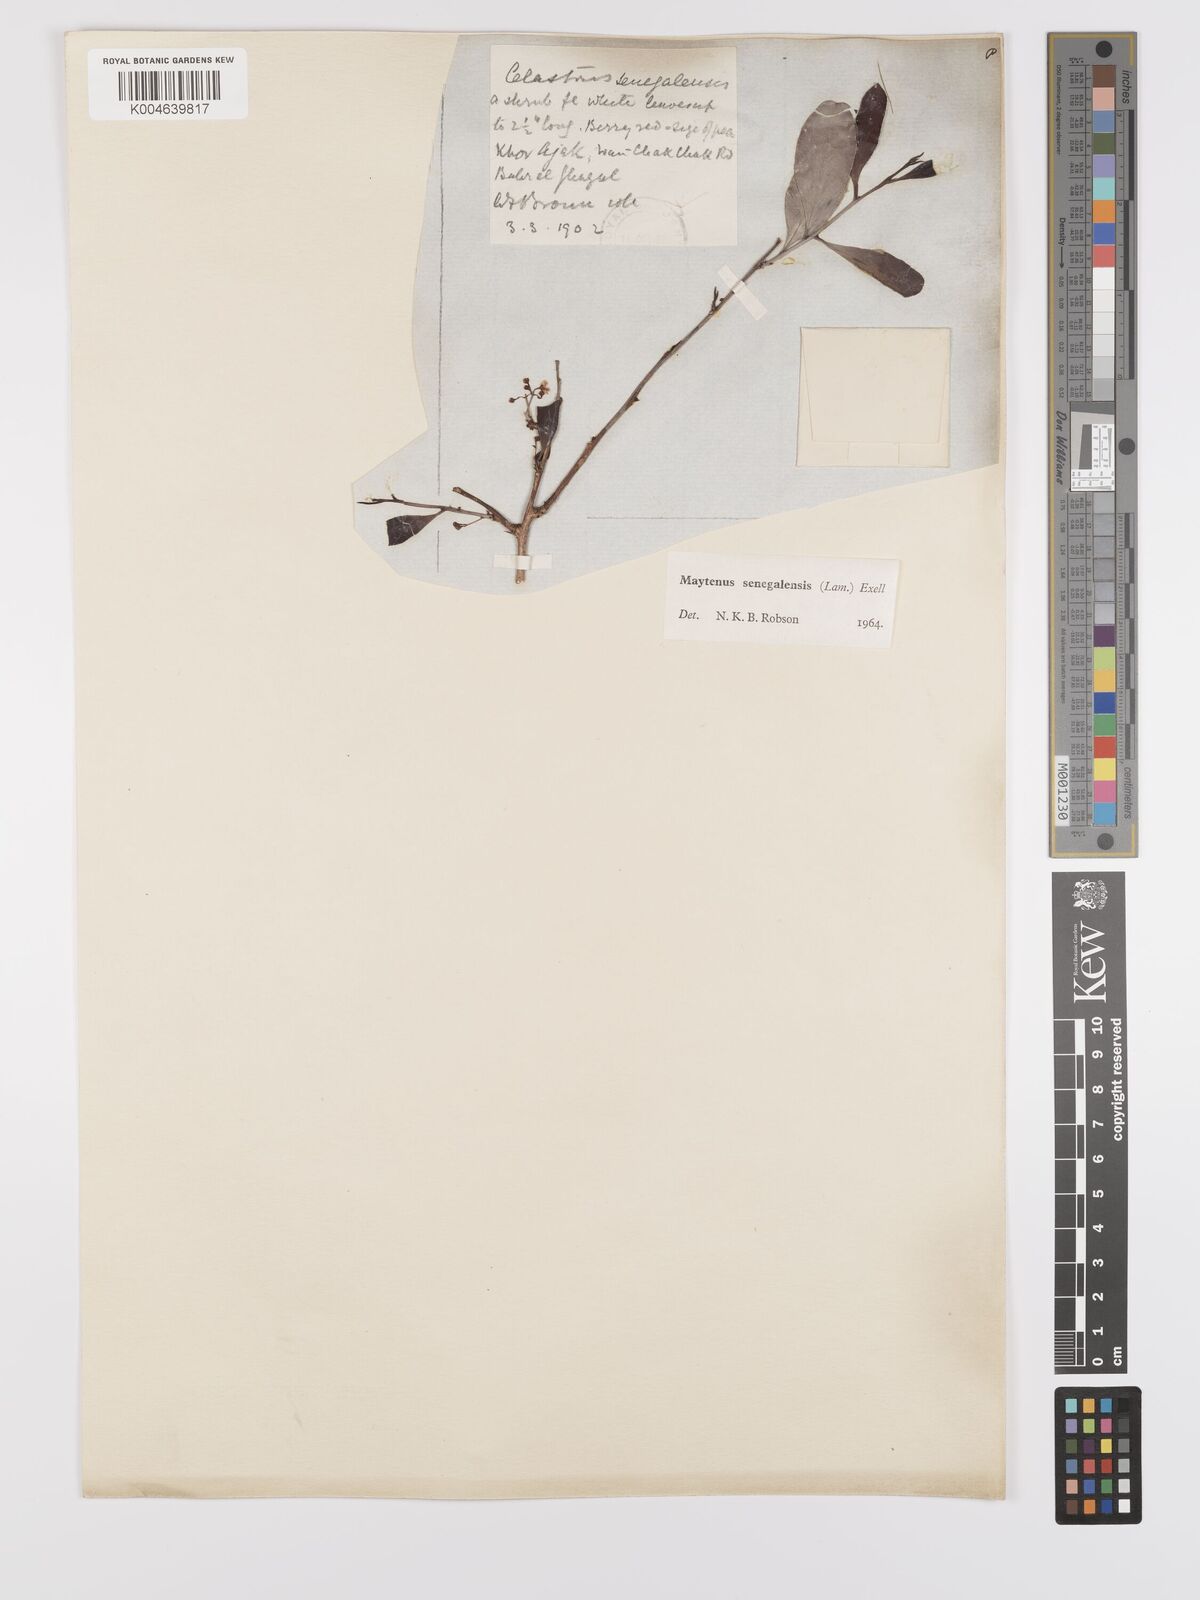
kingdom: Plantae
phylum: Tracheophyta
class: Magnoliopsida
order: Celastrales
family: Celastraceae
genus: Gymnosporia
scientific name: Gymnosporia senegalensis
